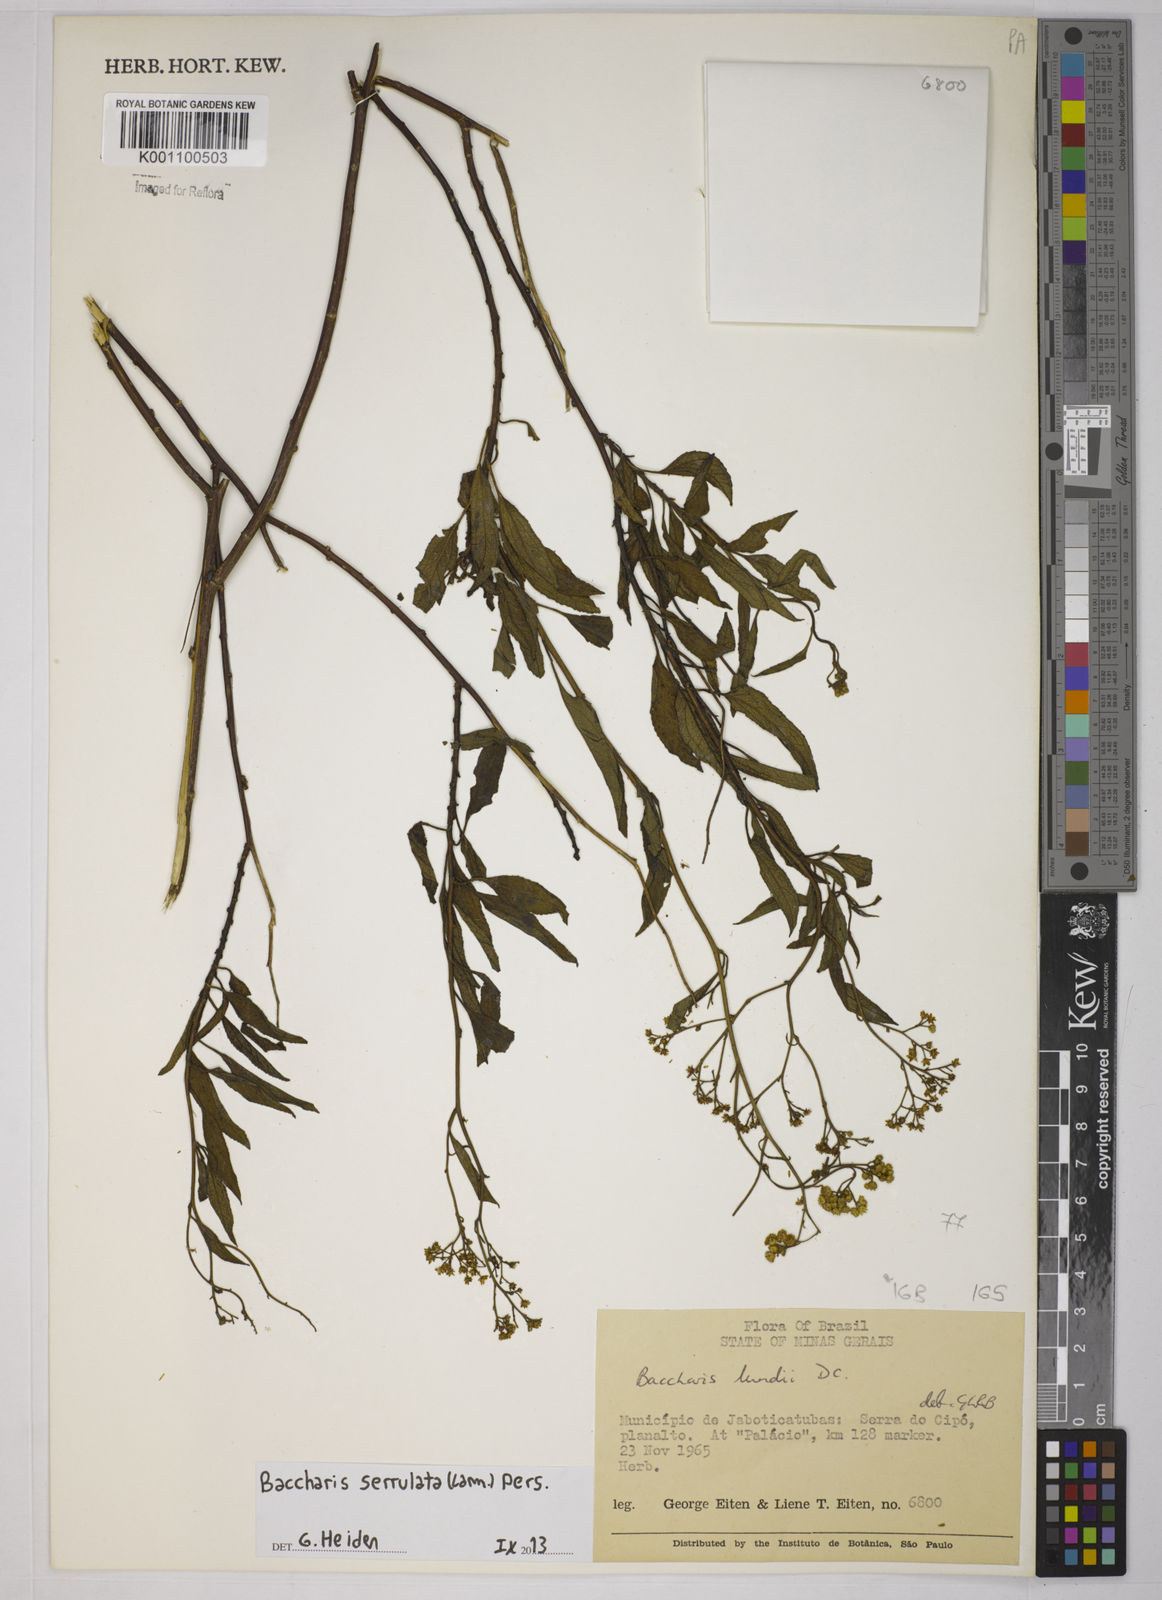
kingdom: Plantae
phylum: Tracheophyta
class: Magnoliopsida
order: Asterales
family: Asteraceae
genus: Baccharis
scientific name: Baccharis serrulata
